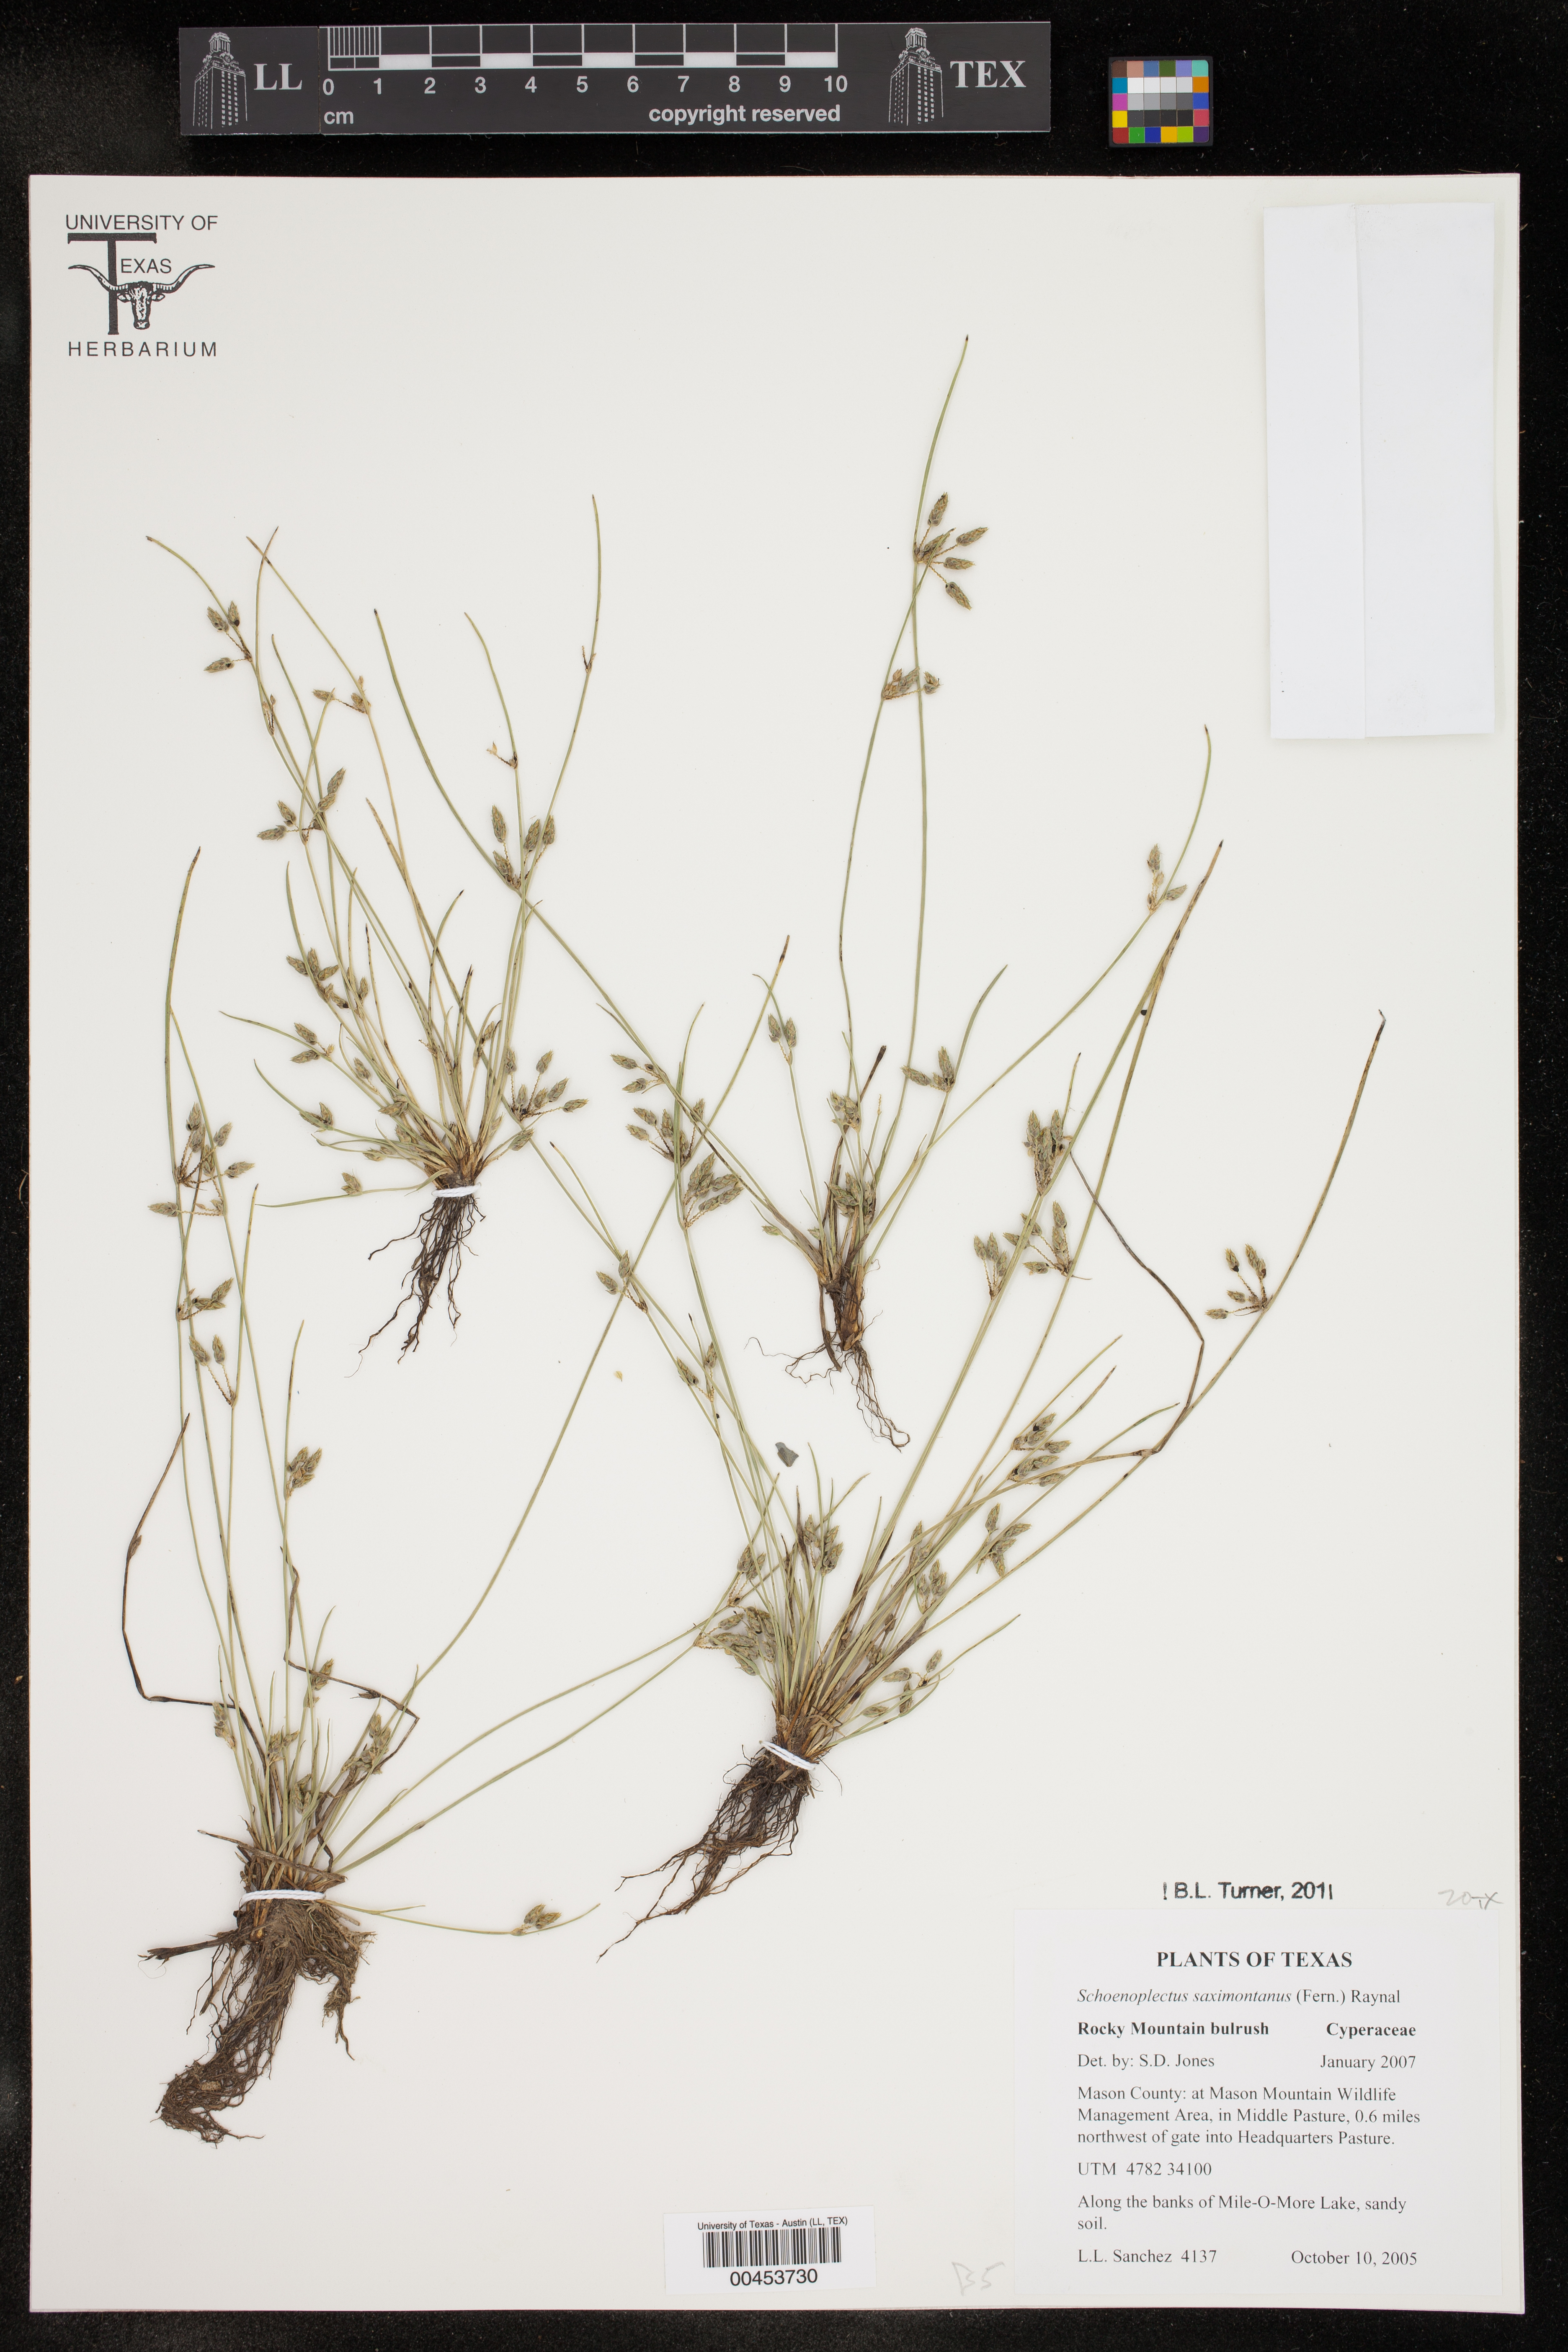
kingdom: Plantae
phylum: Tracheophyta
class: Liliopsida
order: Poales
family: Cyperaceae
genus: Schoenoplectiella
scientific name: Schoenoplectiella saximontana
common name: Rocky mountain clubrush
